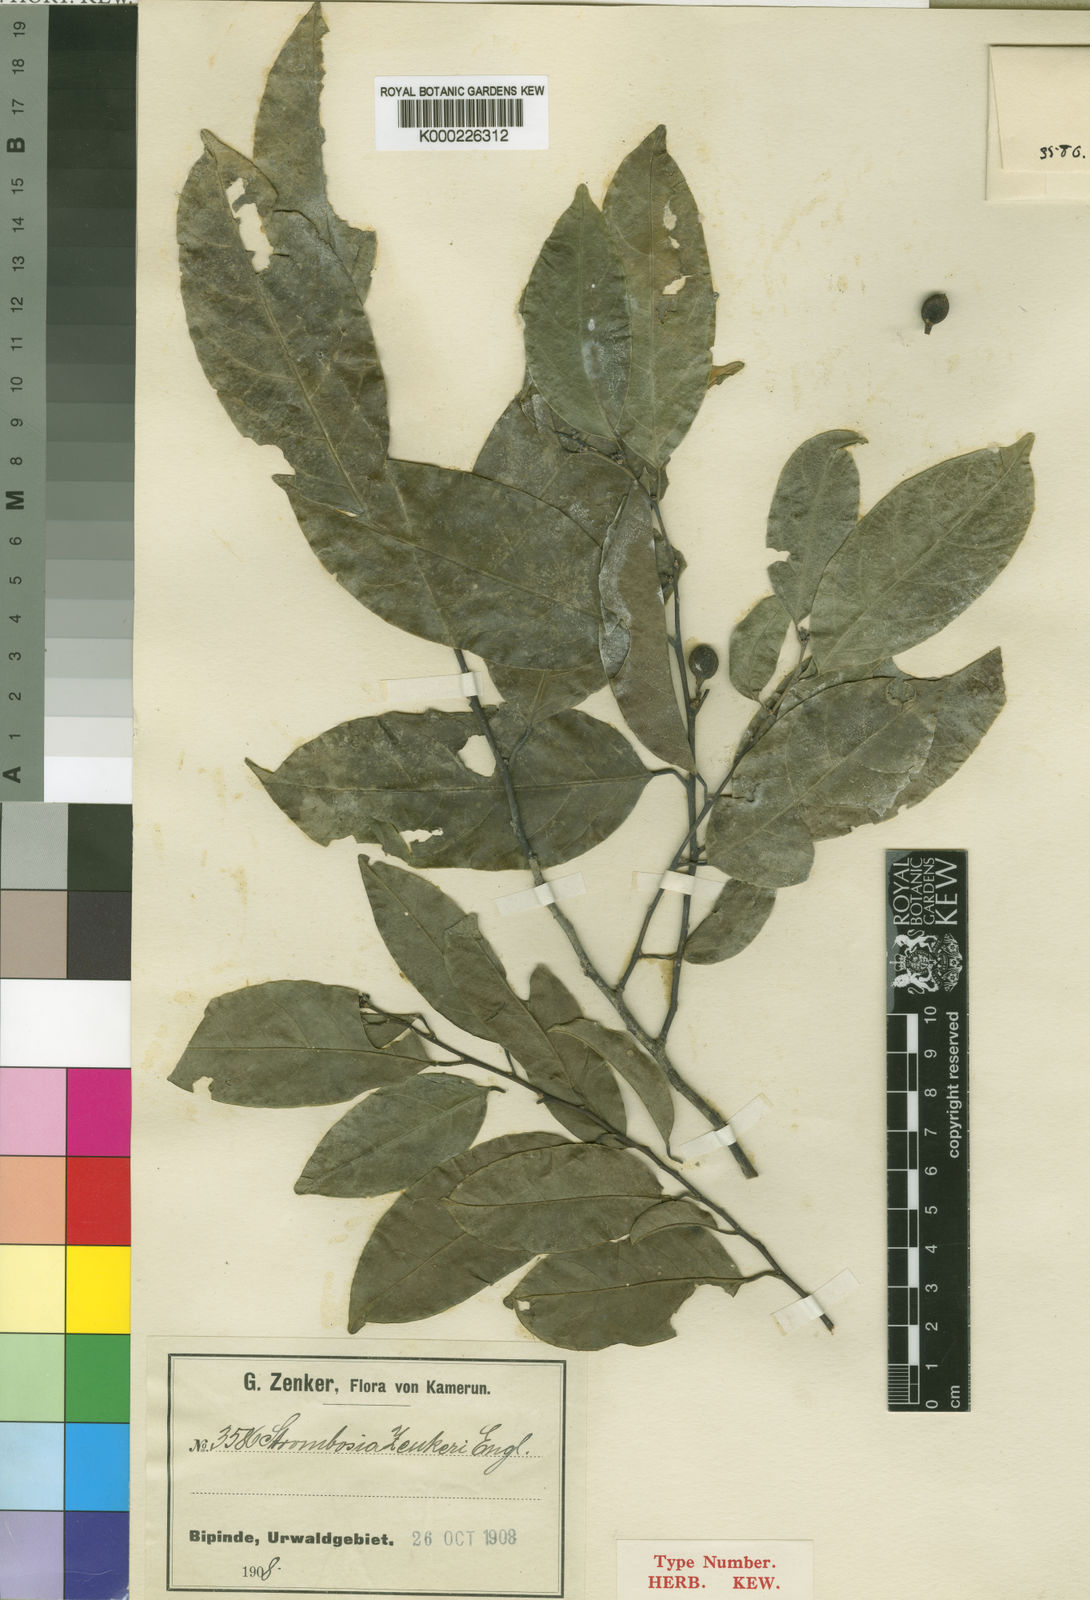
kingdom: Plantae
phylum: Tracheophyta
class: Magnoliopsida
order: Santalales
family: Strombosiaceae
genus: Strombosia
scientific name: Strombosia zenkeri
